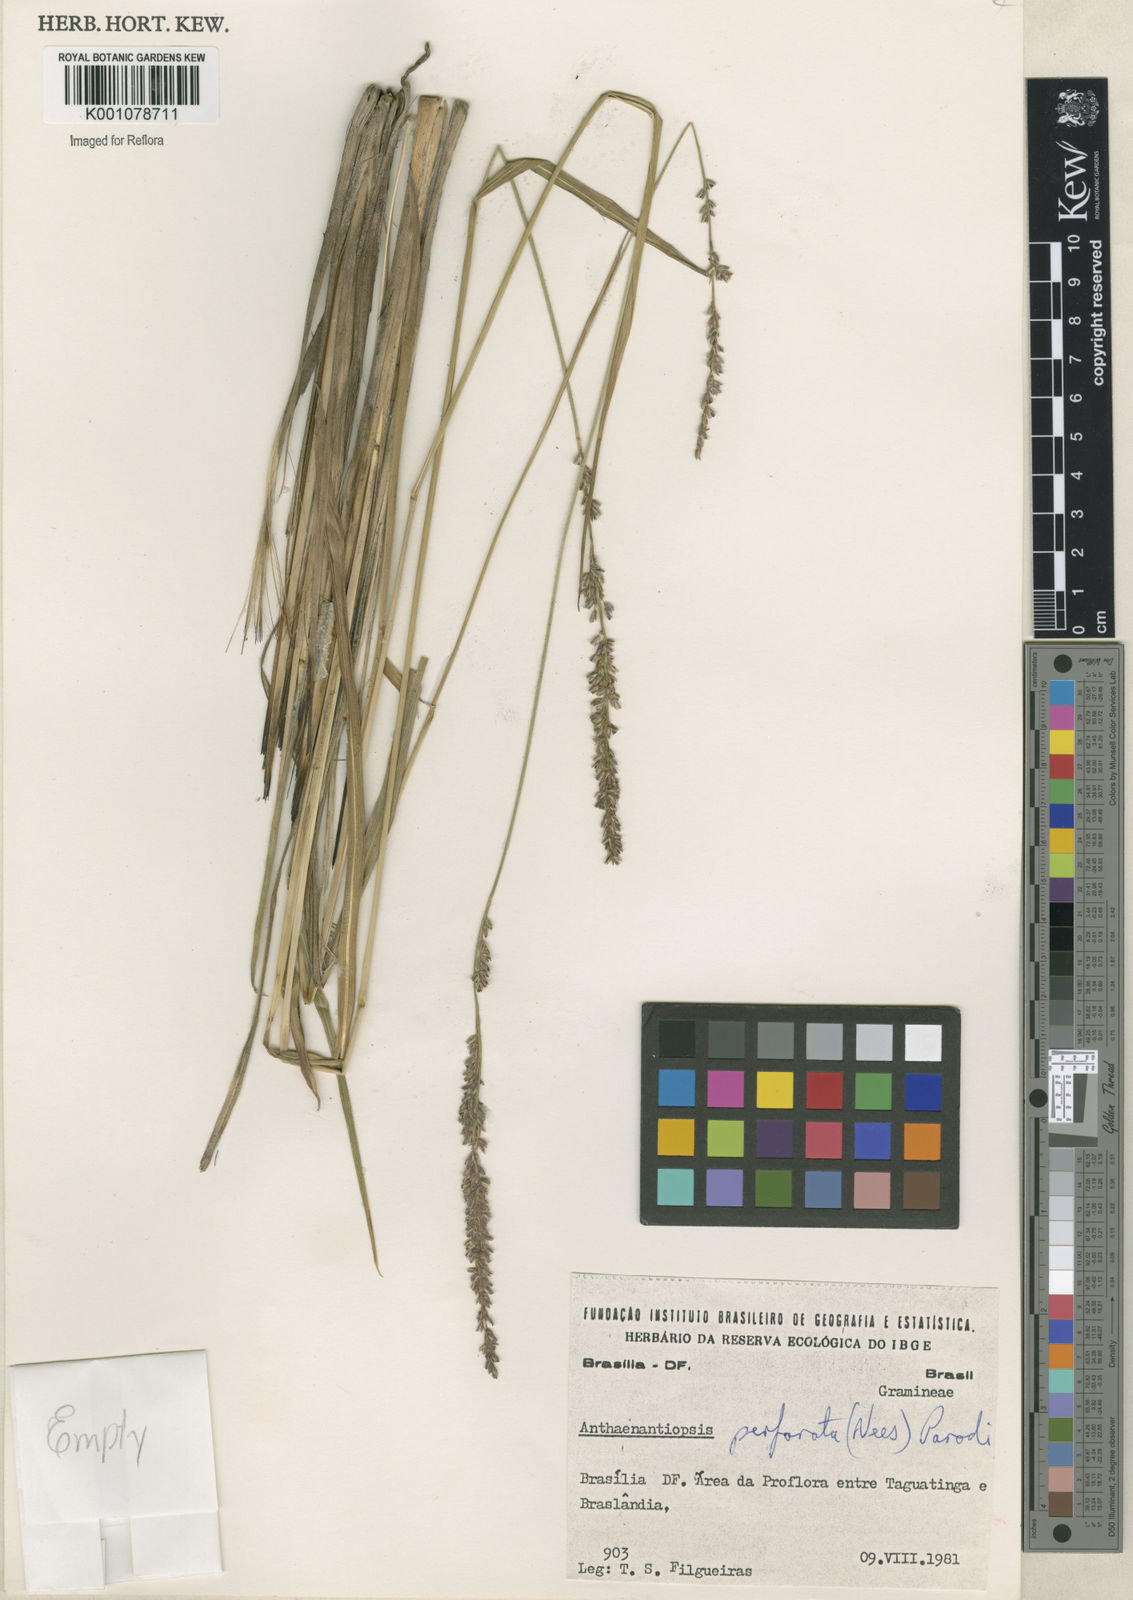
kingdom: Plantae
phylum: Tracheophyta
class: Liliopsida
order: Poales
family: Poaceae
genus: Anthaenantiopsis
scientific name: Anthaenantiopsis perforata
